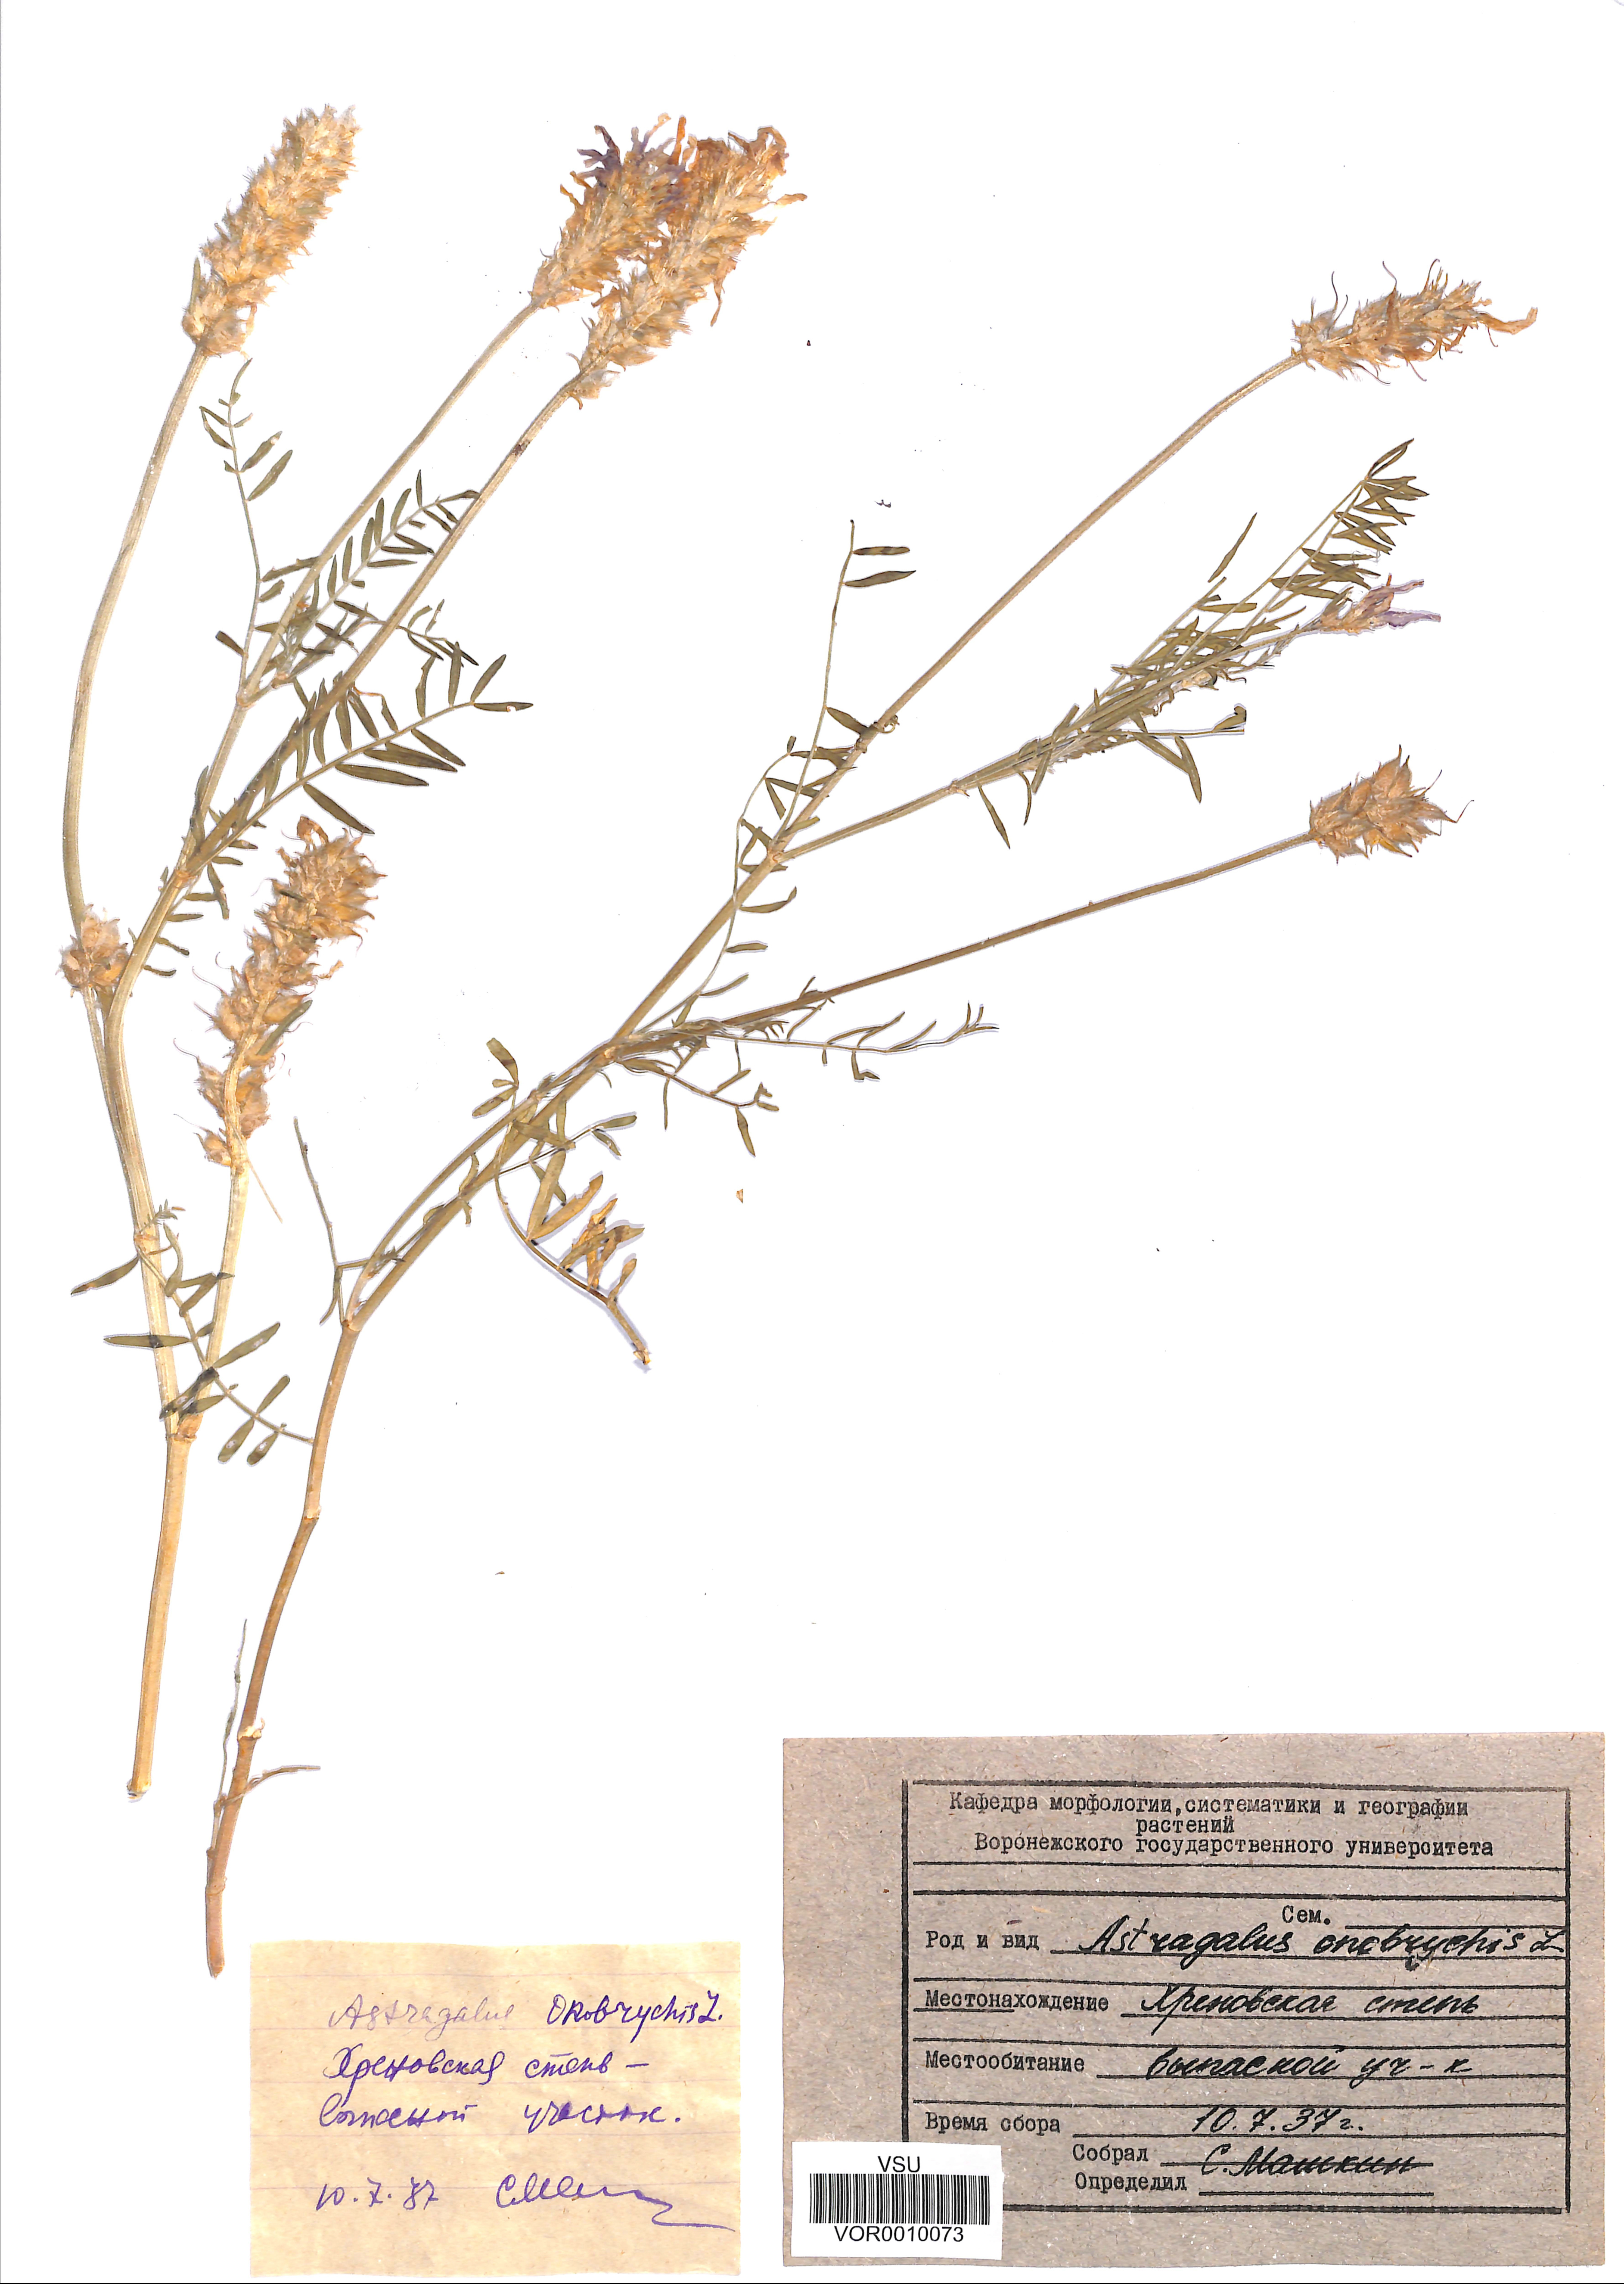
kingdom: Plantae
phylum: Tracheophyta
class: Magnoliopsida
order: Fabales
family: Fabaceae
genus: Astragalus
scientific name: Astragalus onobrychis
